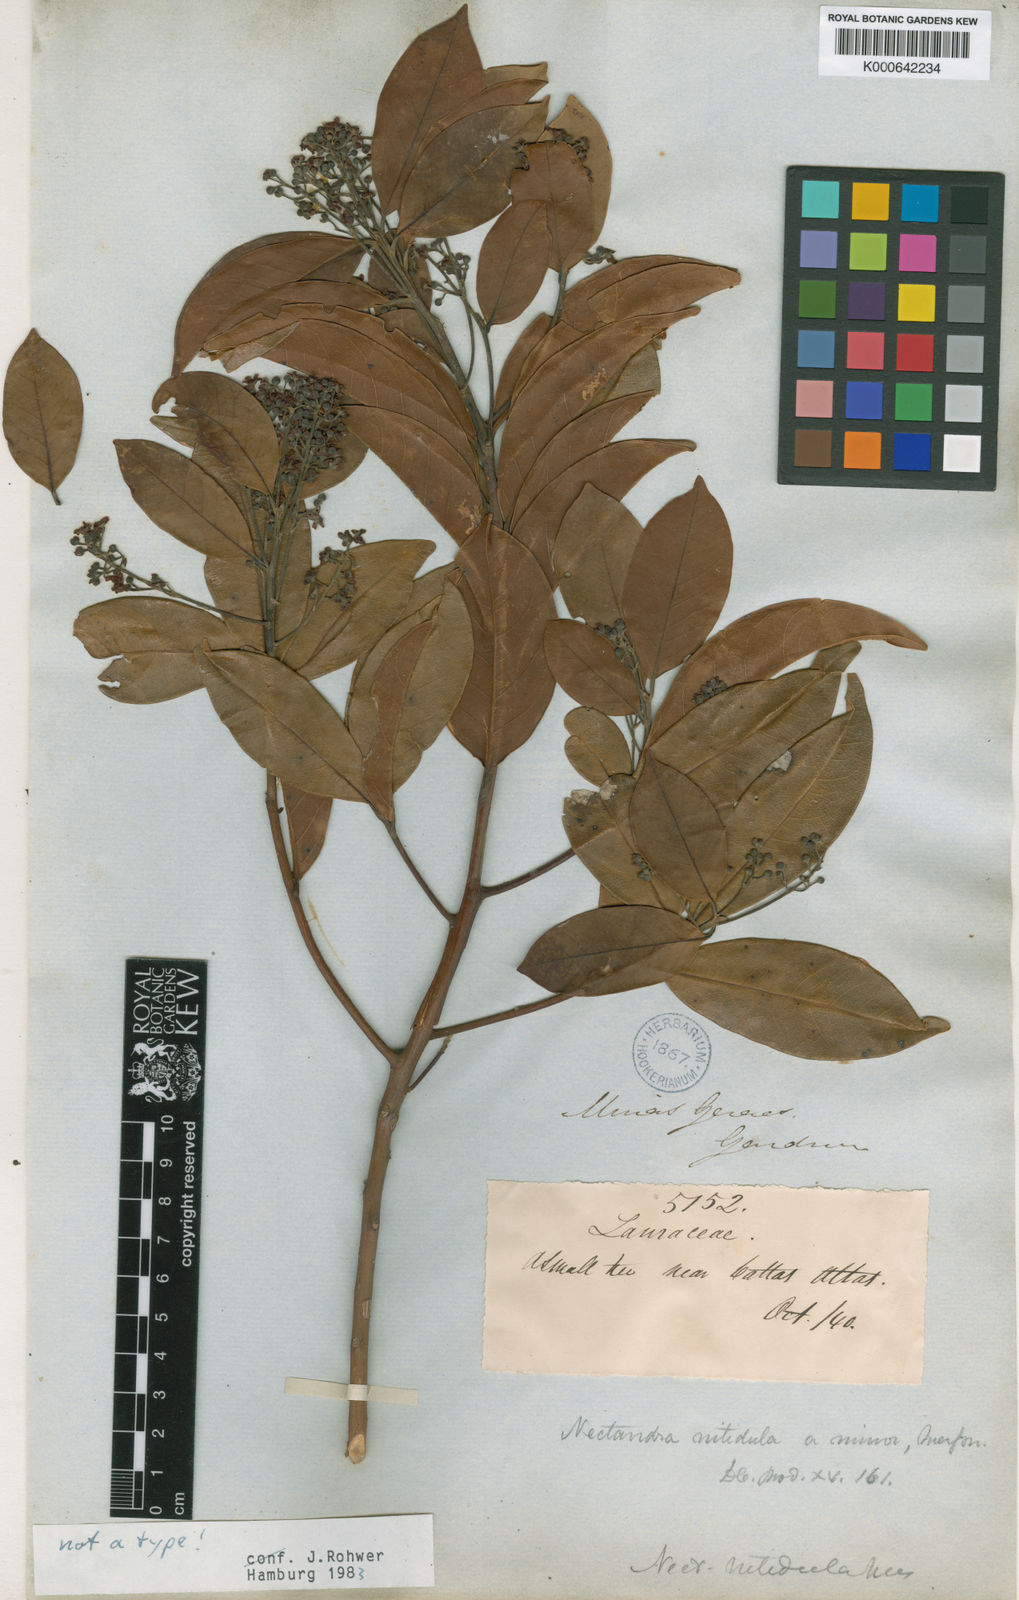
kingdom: Plantae
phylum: Tracheophyta
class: Magnoliopsida
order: Laurales
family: Lauraceae
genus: Nectandra
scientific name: Nectandra nitidula
